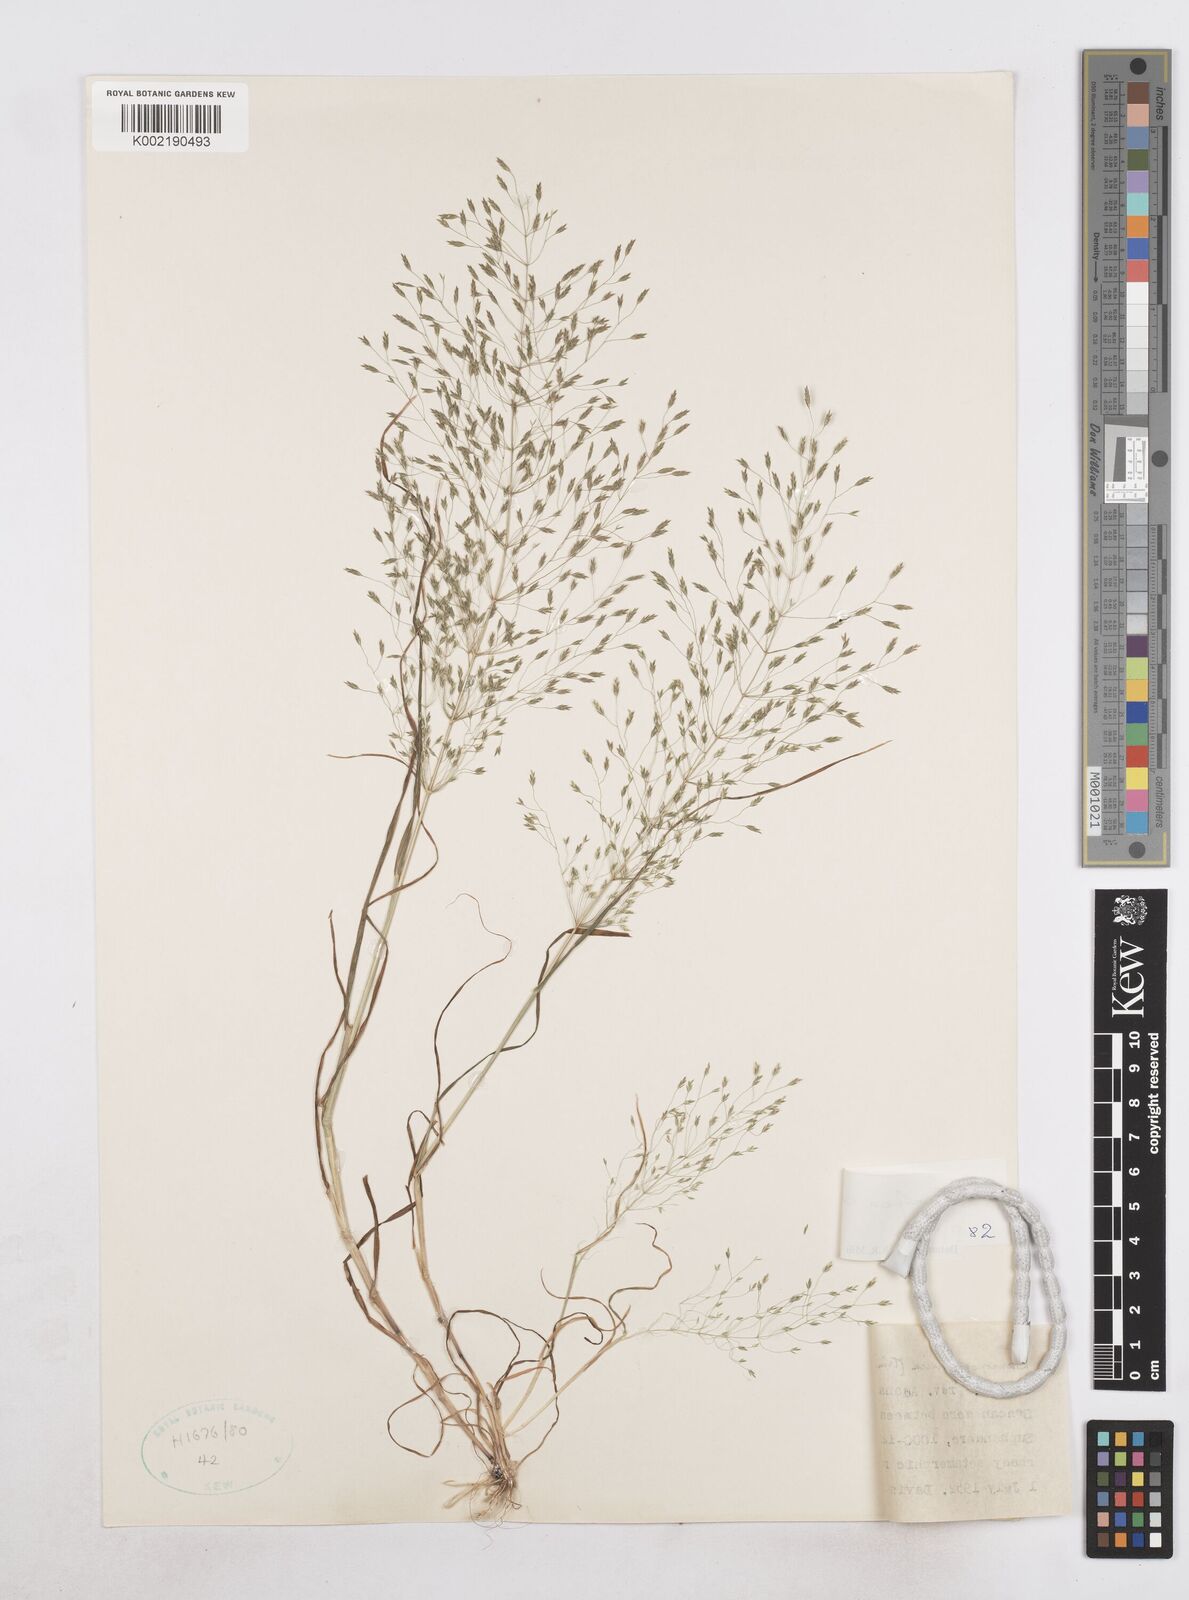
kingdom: Plantae
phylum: Tracheophyta
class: Liliopsida
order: Poales
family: Poaceae
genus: Poa
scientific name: Poa millii
